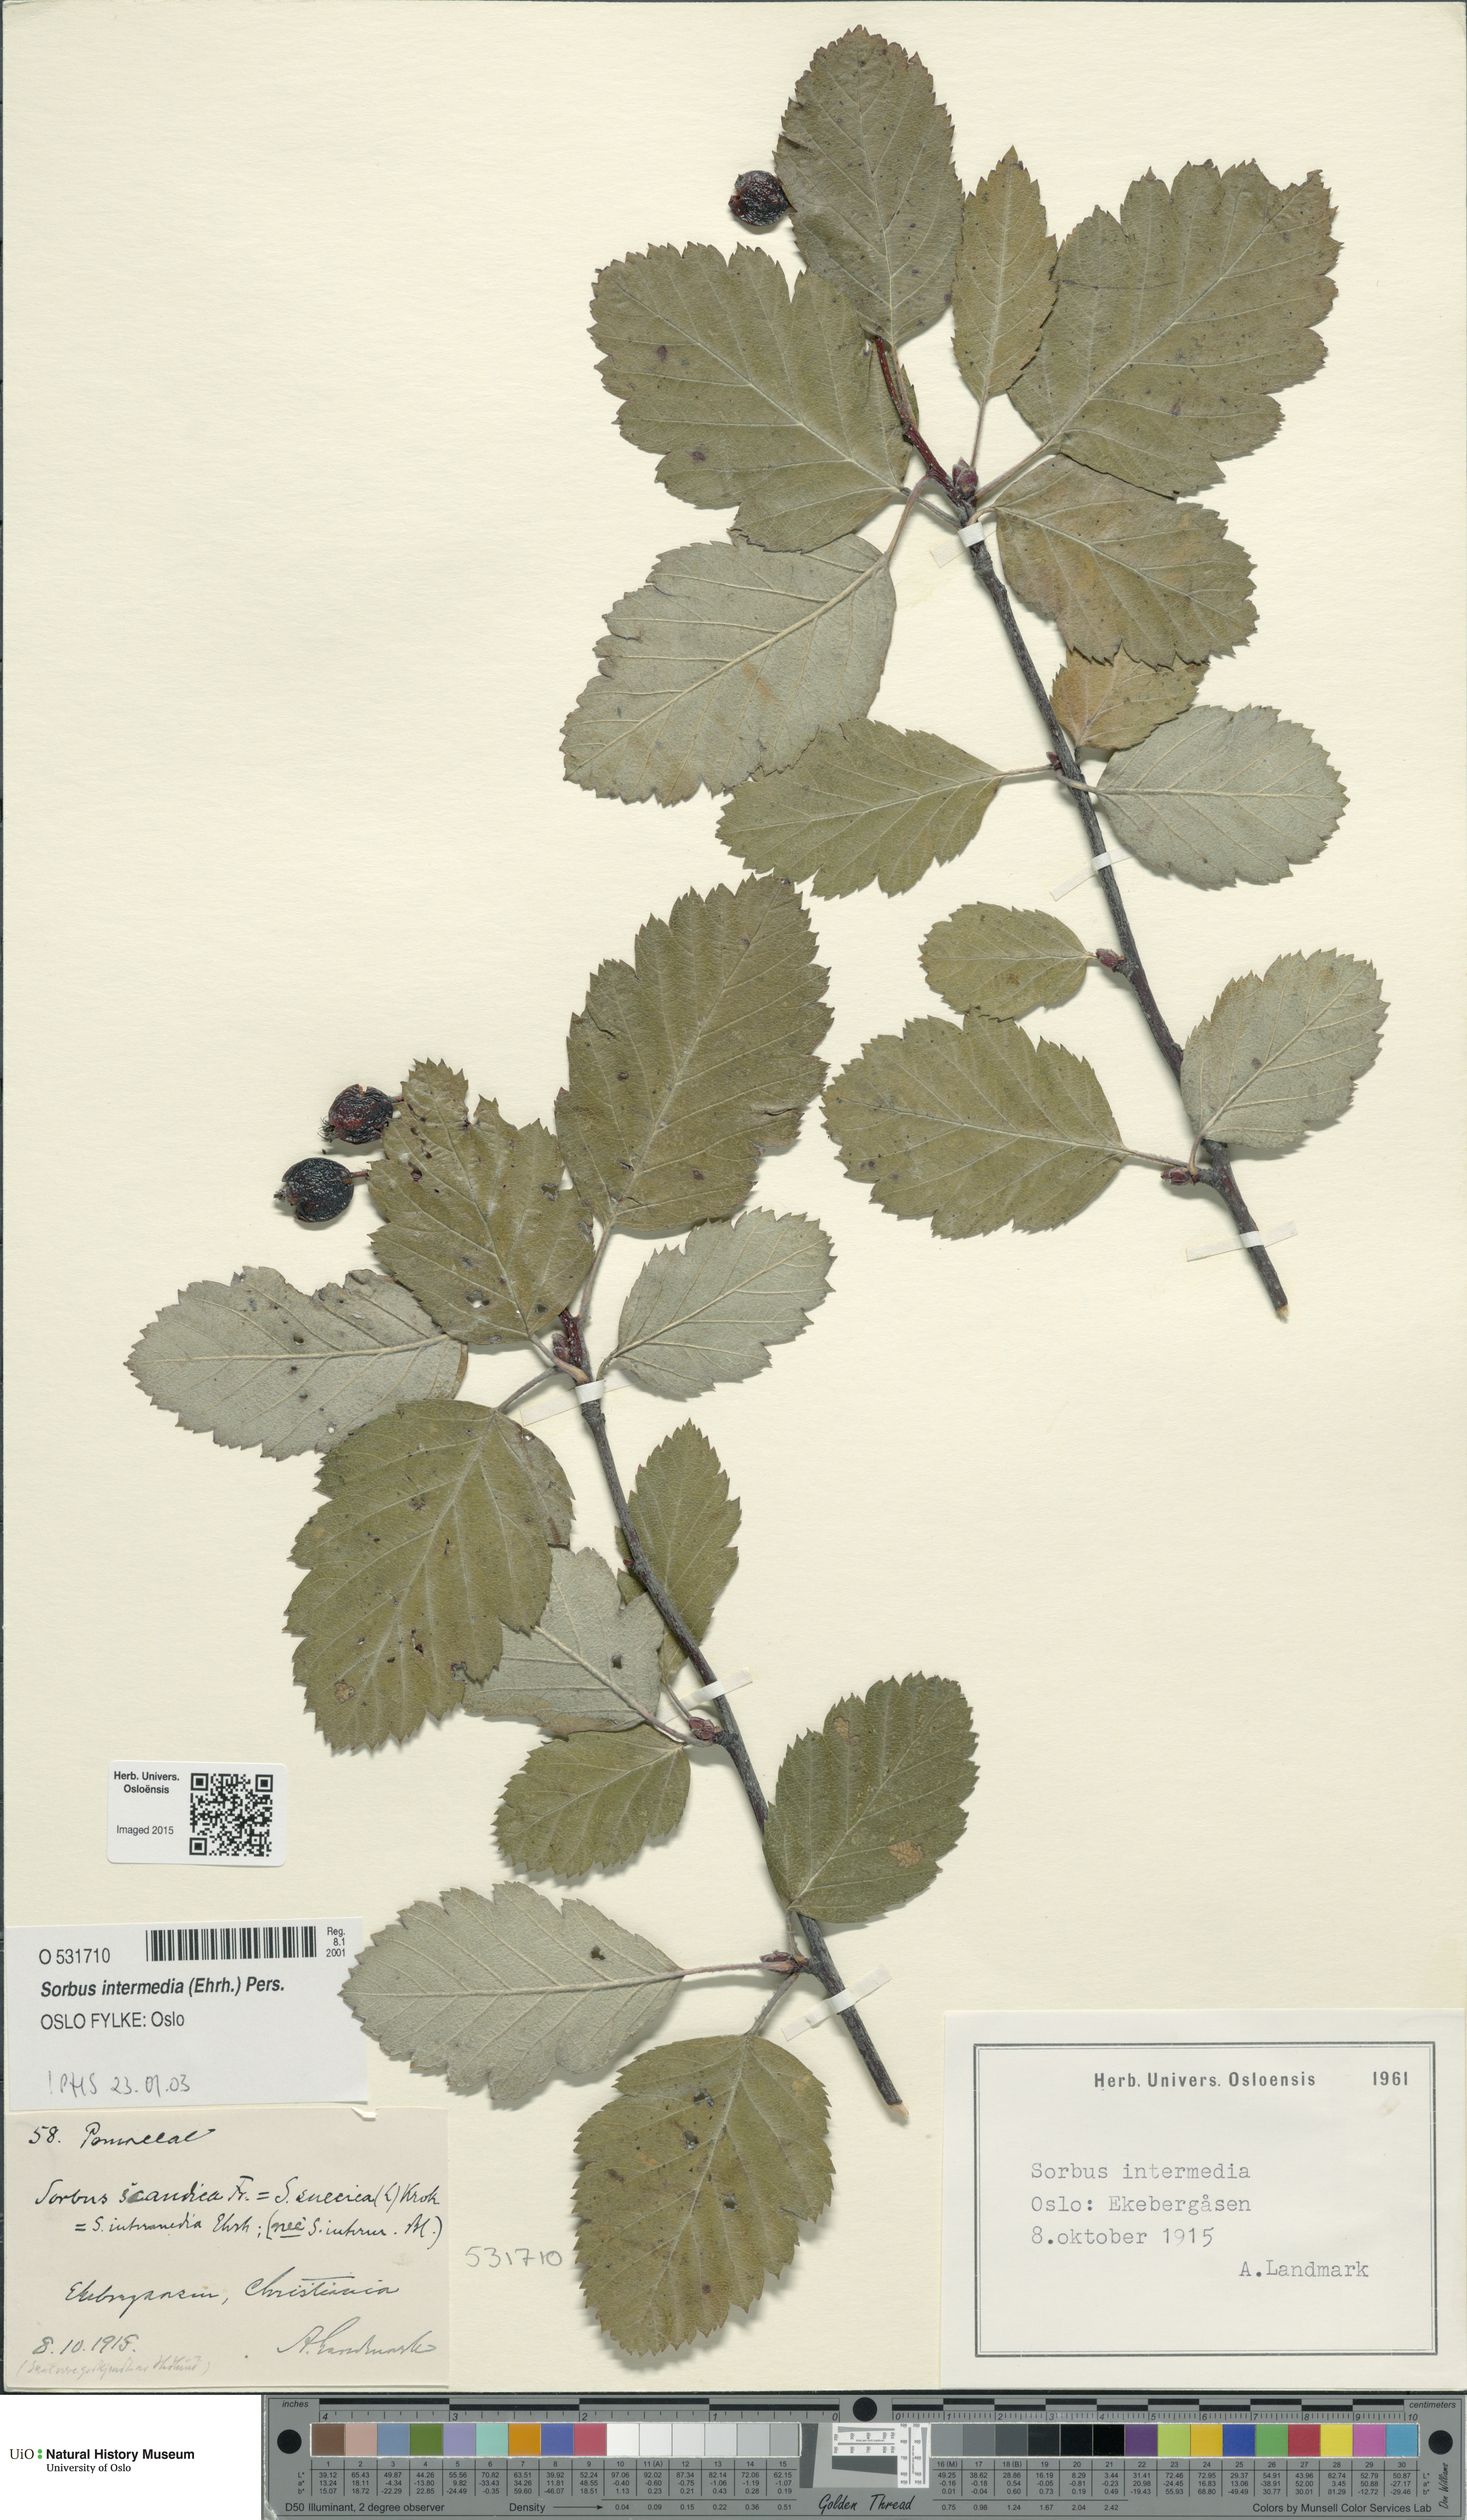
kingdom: Plantae
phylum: Tracheophyta
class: Magnoliopsida
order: Rosales
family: Rosaceae
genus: Scandosorbus
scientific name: Scandosorbus intermedia
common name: Swedish whitebeam
